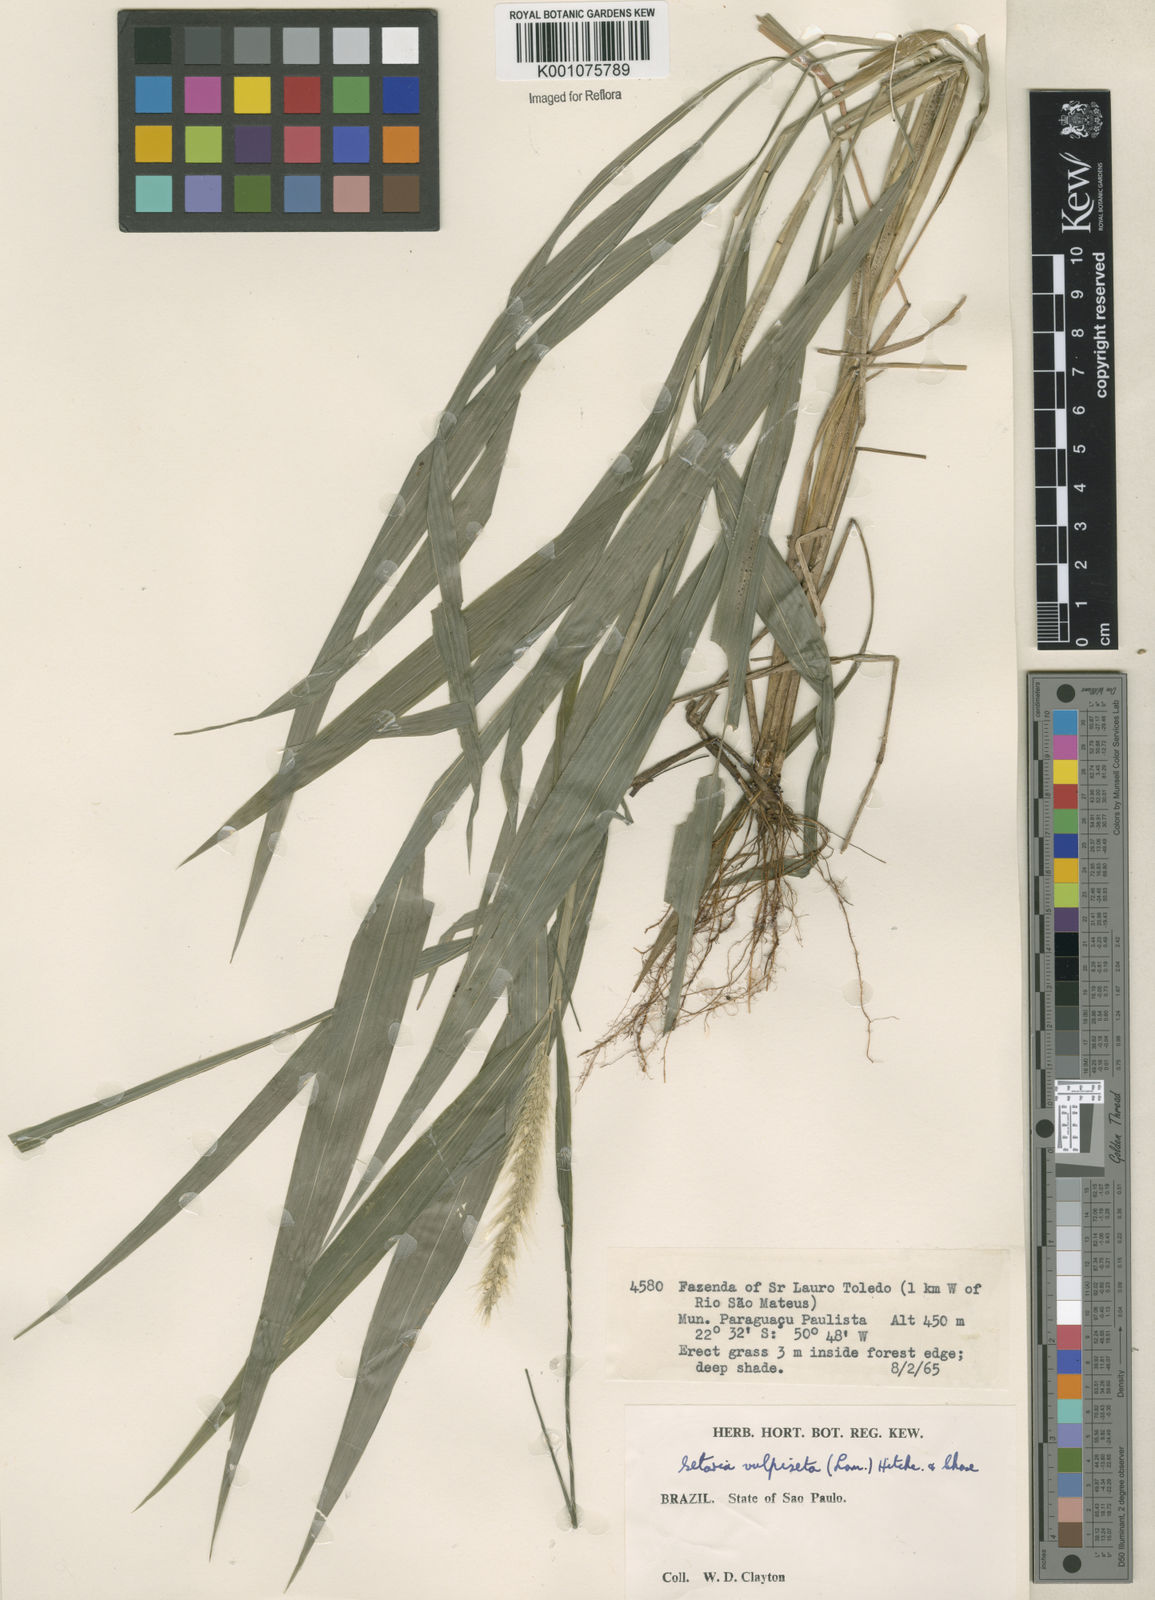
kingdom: Plantae
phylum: Tracheophyta
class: Liliopsida
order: Poales
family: Poaceae
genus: Setaria
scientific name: Setaria vulpiseta
